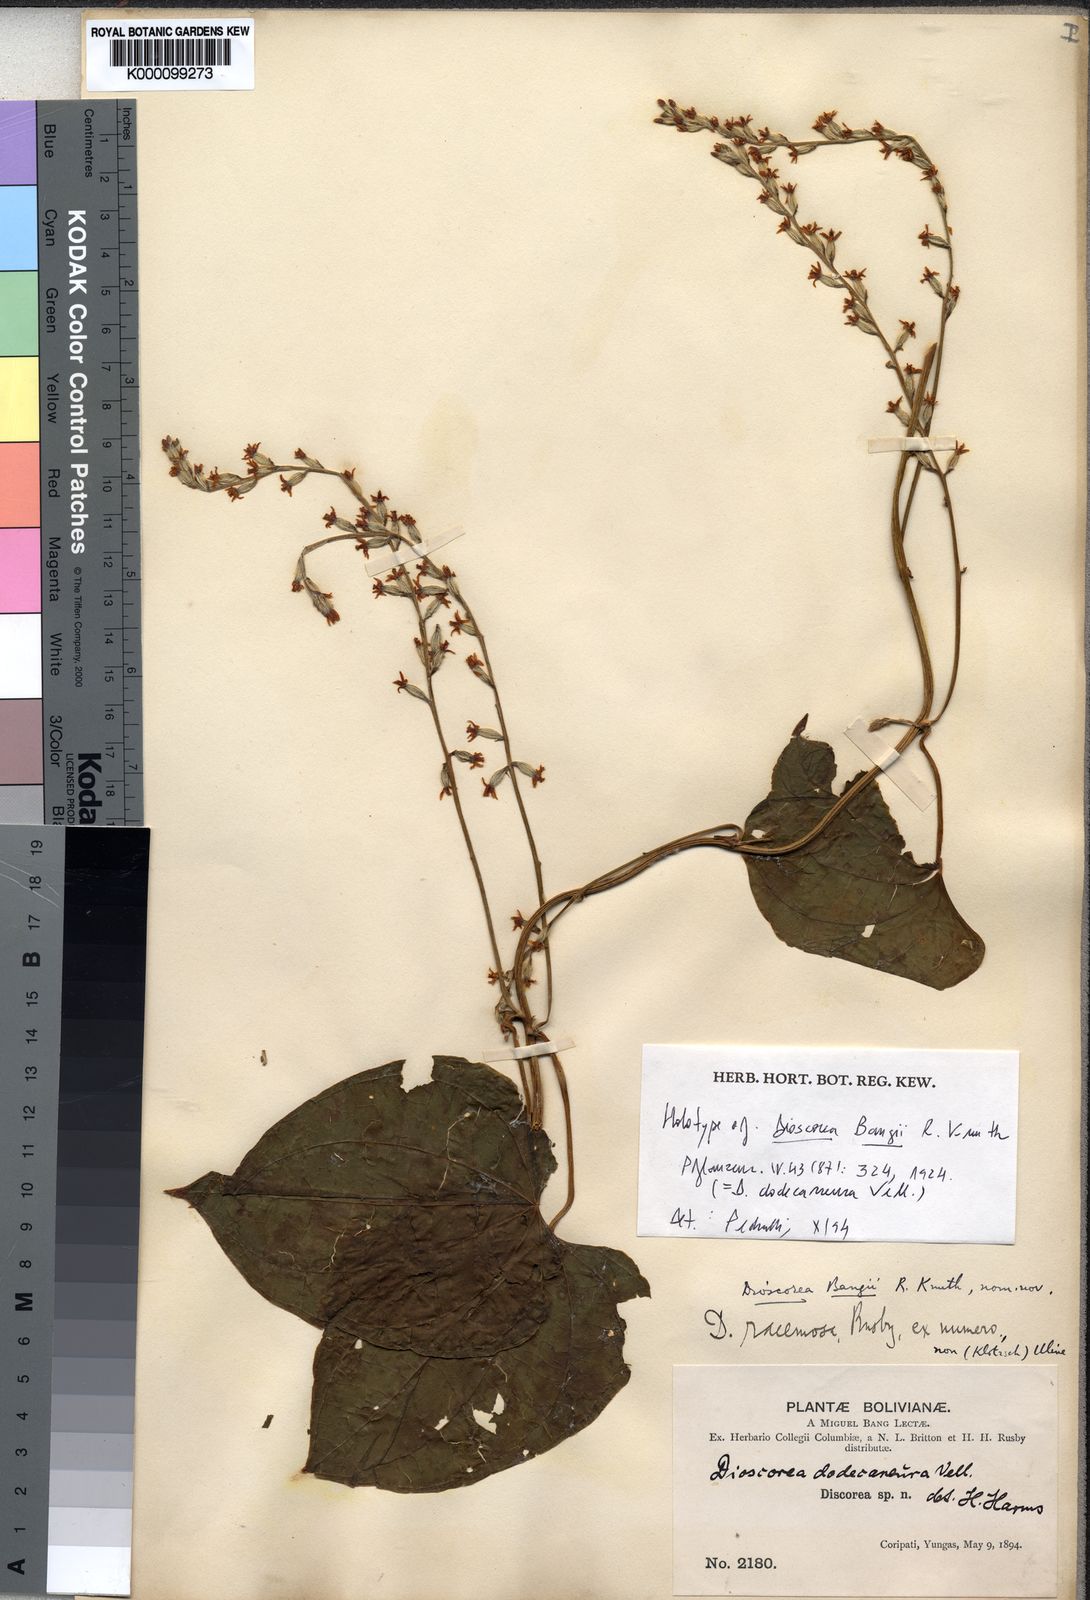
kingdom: Plantae
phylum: Tracheophyta
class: Liliopsida
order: Dioscoreales
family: Dioscoreaceae
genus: Dioscorea
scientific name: Dioscorea dodecaneura
